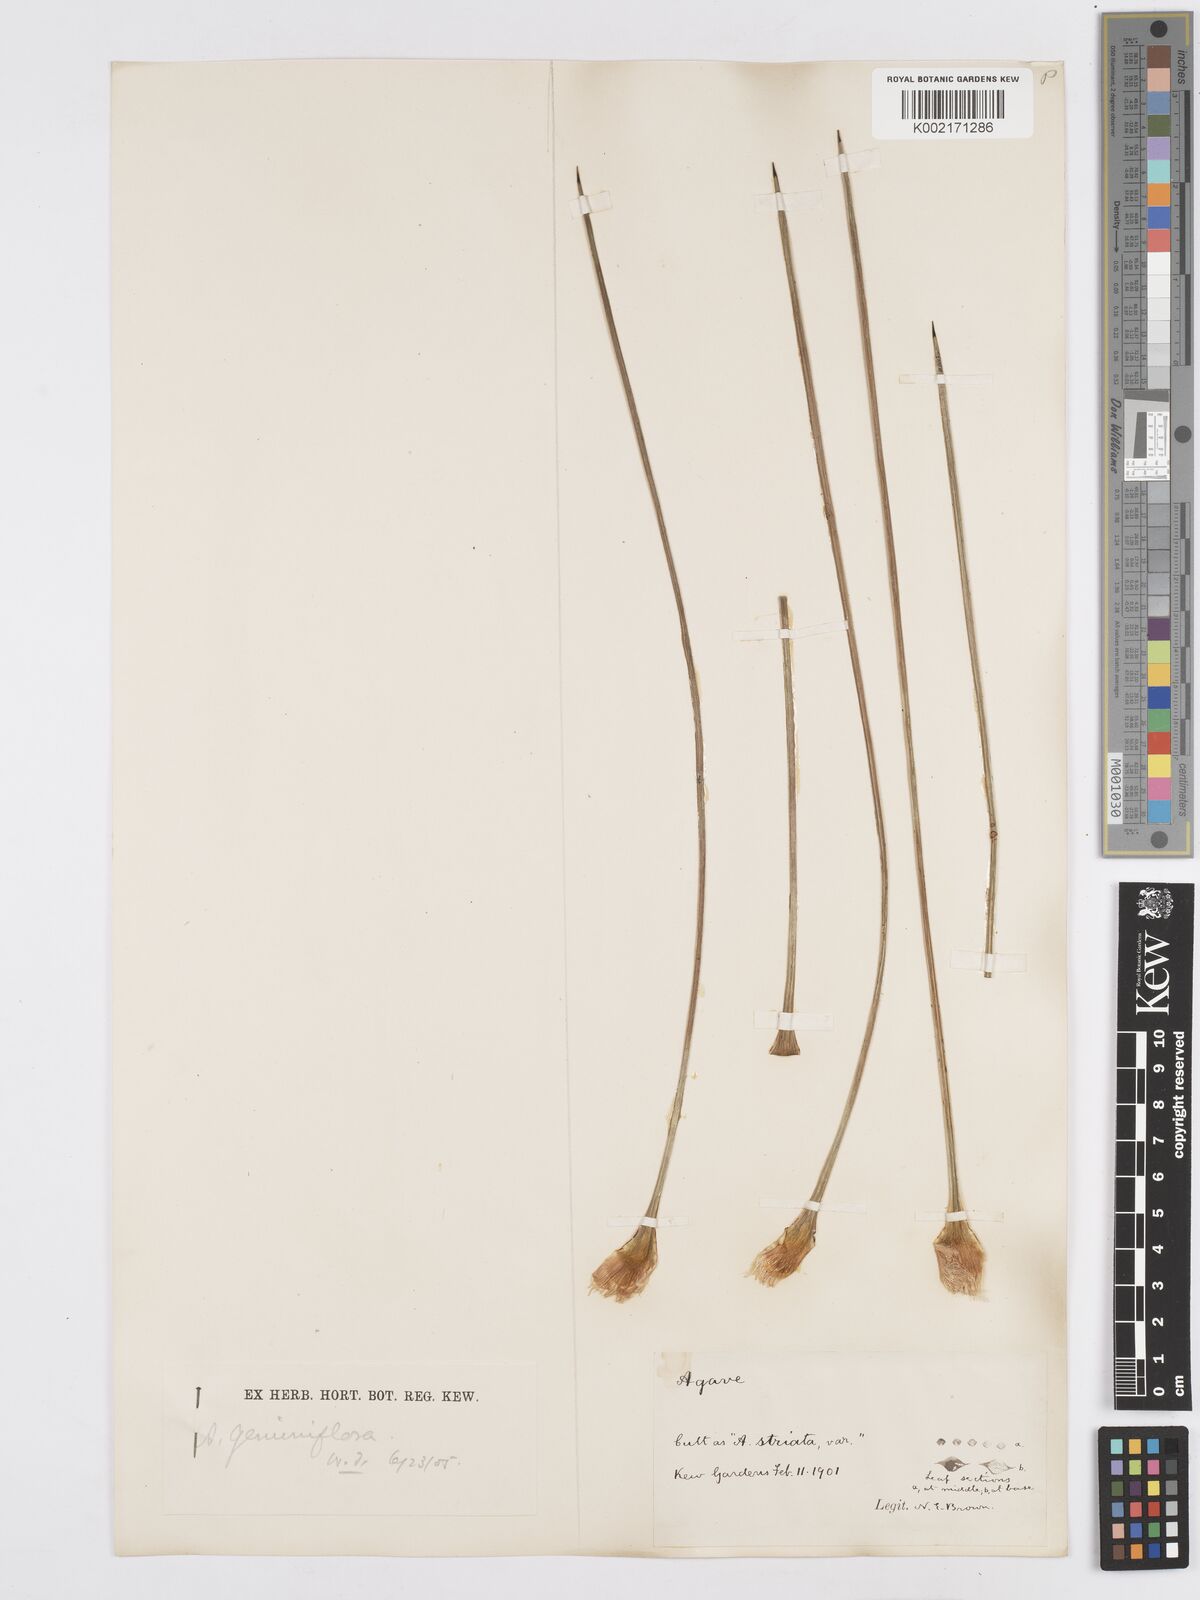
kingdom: Plantae
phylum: Tracheophyta
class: Liliopsida
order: Asparagales
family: Asparagaceae
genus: Agave
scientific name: Agave geminiflora
